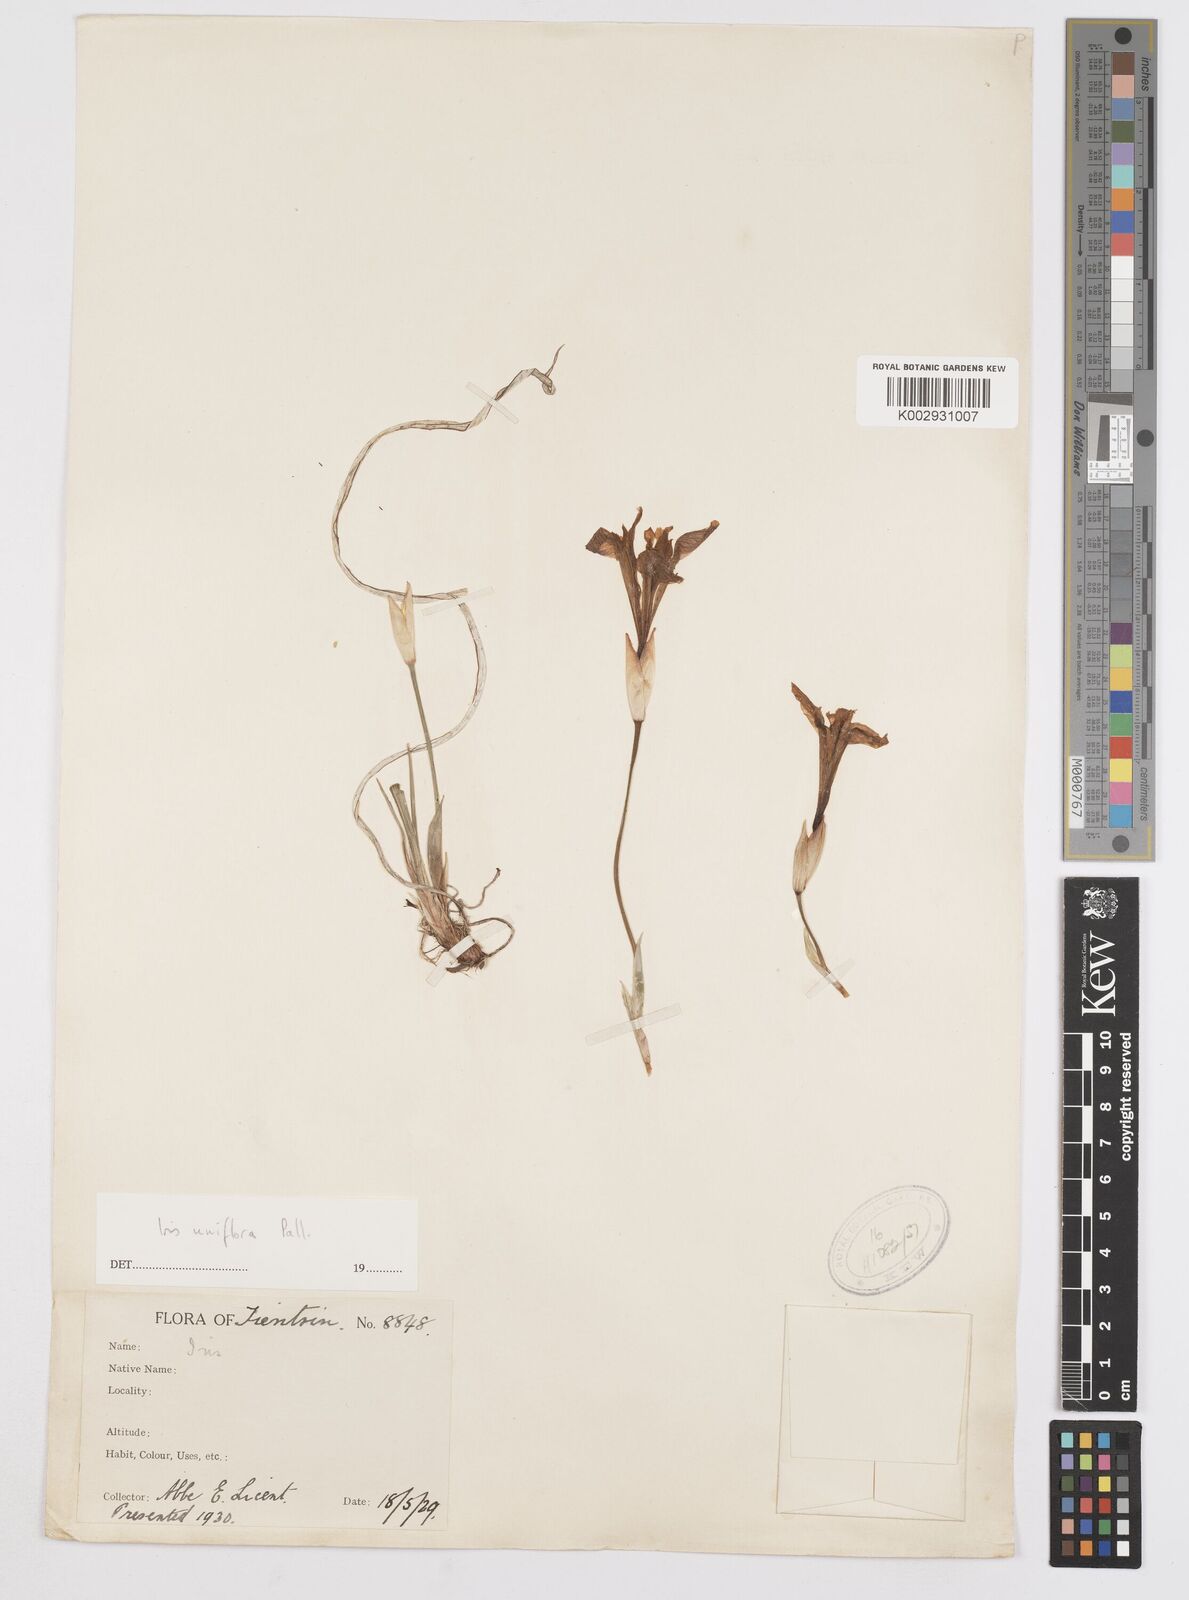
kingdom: Plantae
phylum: Tracheophyta
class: Liliopsida
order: Asparagales
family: Iridaceae
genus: Iris
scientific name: Iris uniflora
